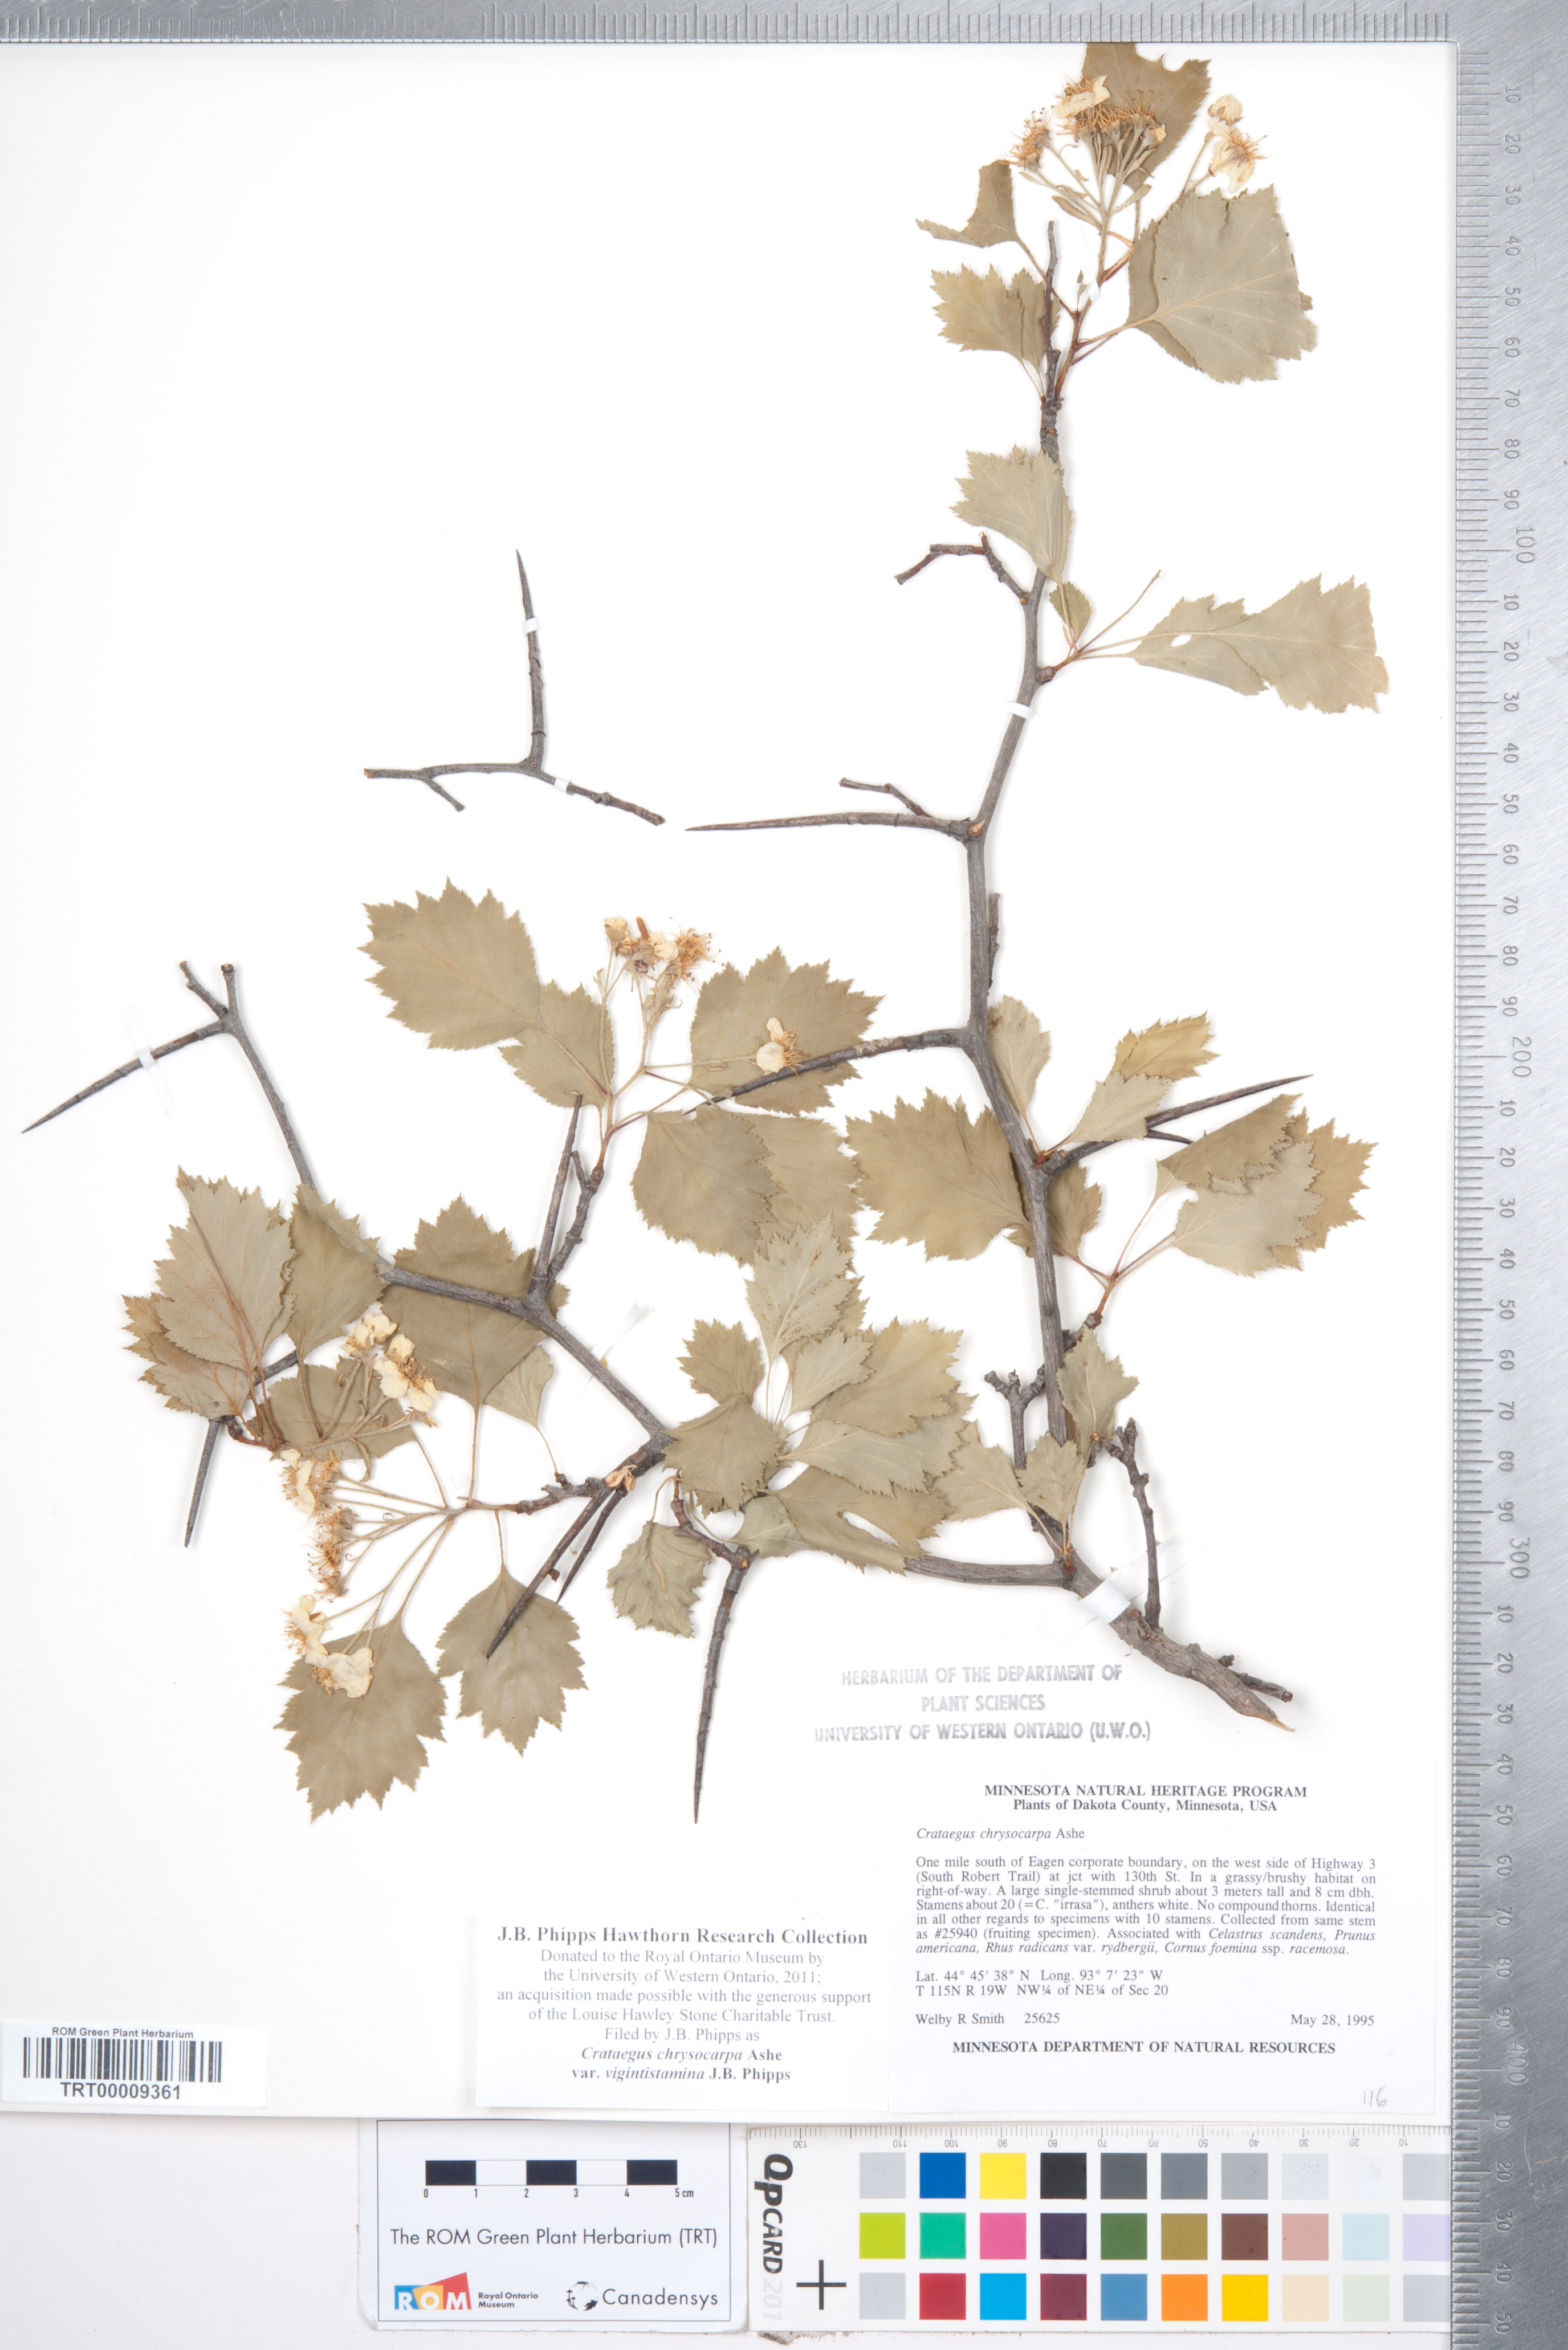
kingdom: Plantae
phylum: Tracheophyta
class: Magnoliopsida
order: Rosales
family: Rosaceae
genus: Crataegus
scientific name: Crataegus chrysocarpa
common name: Fire-berry hawthorn
